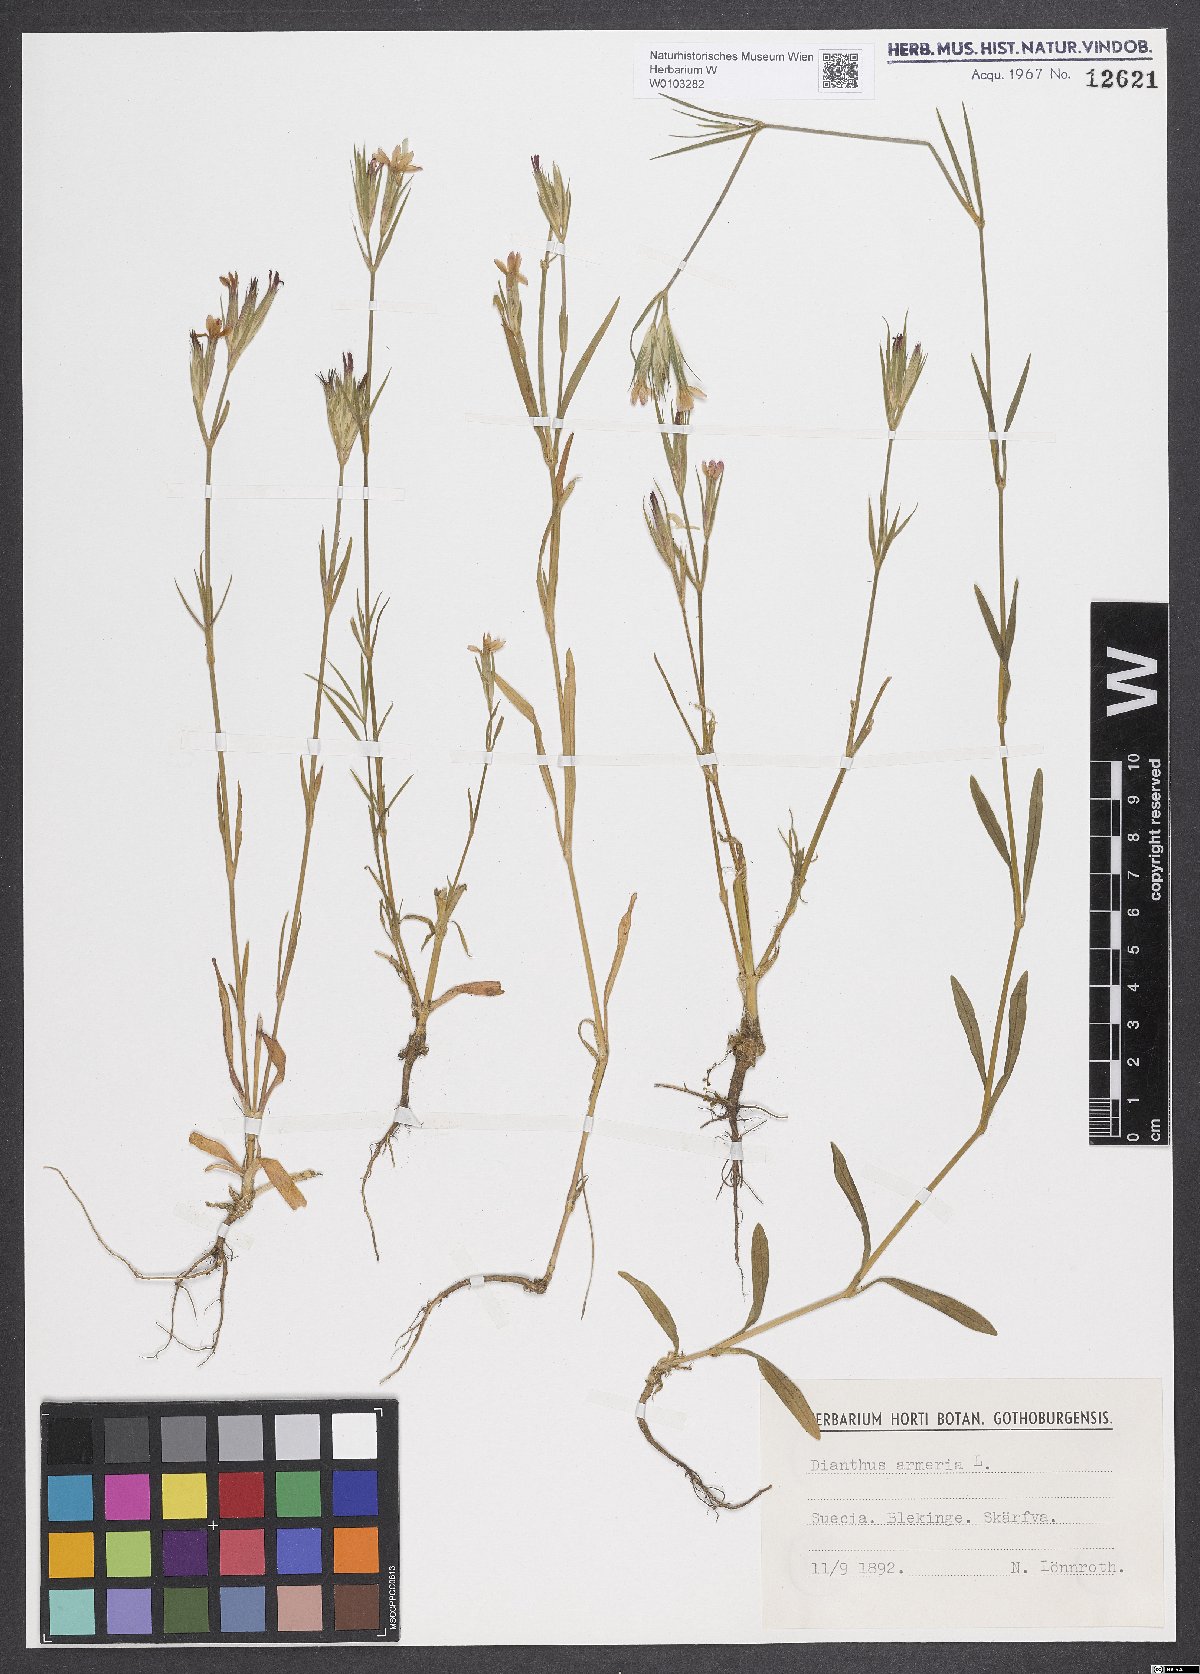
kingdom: Plantae
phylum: Tracheophyta
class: Magnoliopsida
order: Caryophyllales
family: Caryophyllaceae
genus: Dianthus
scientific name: Dianthus armeria
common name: Deptford pink
